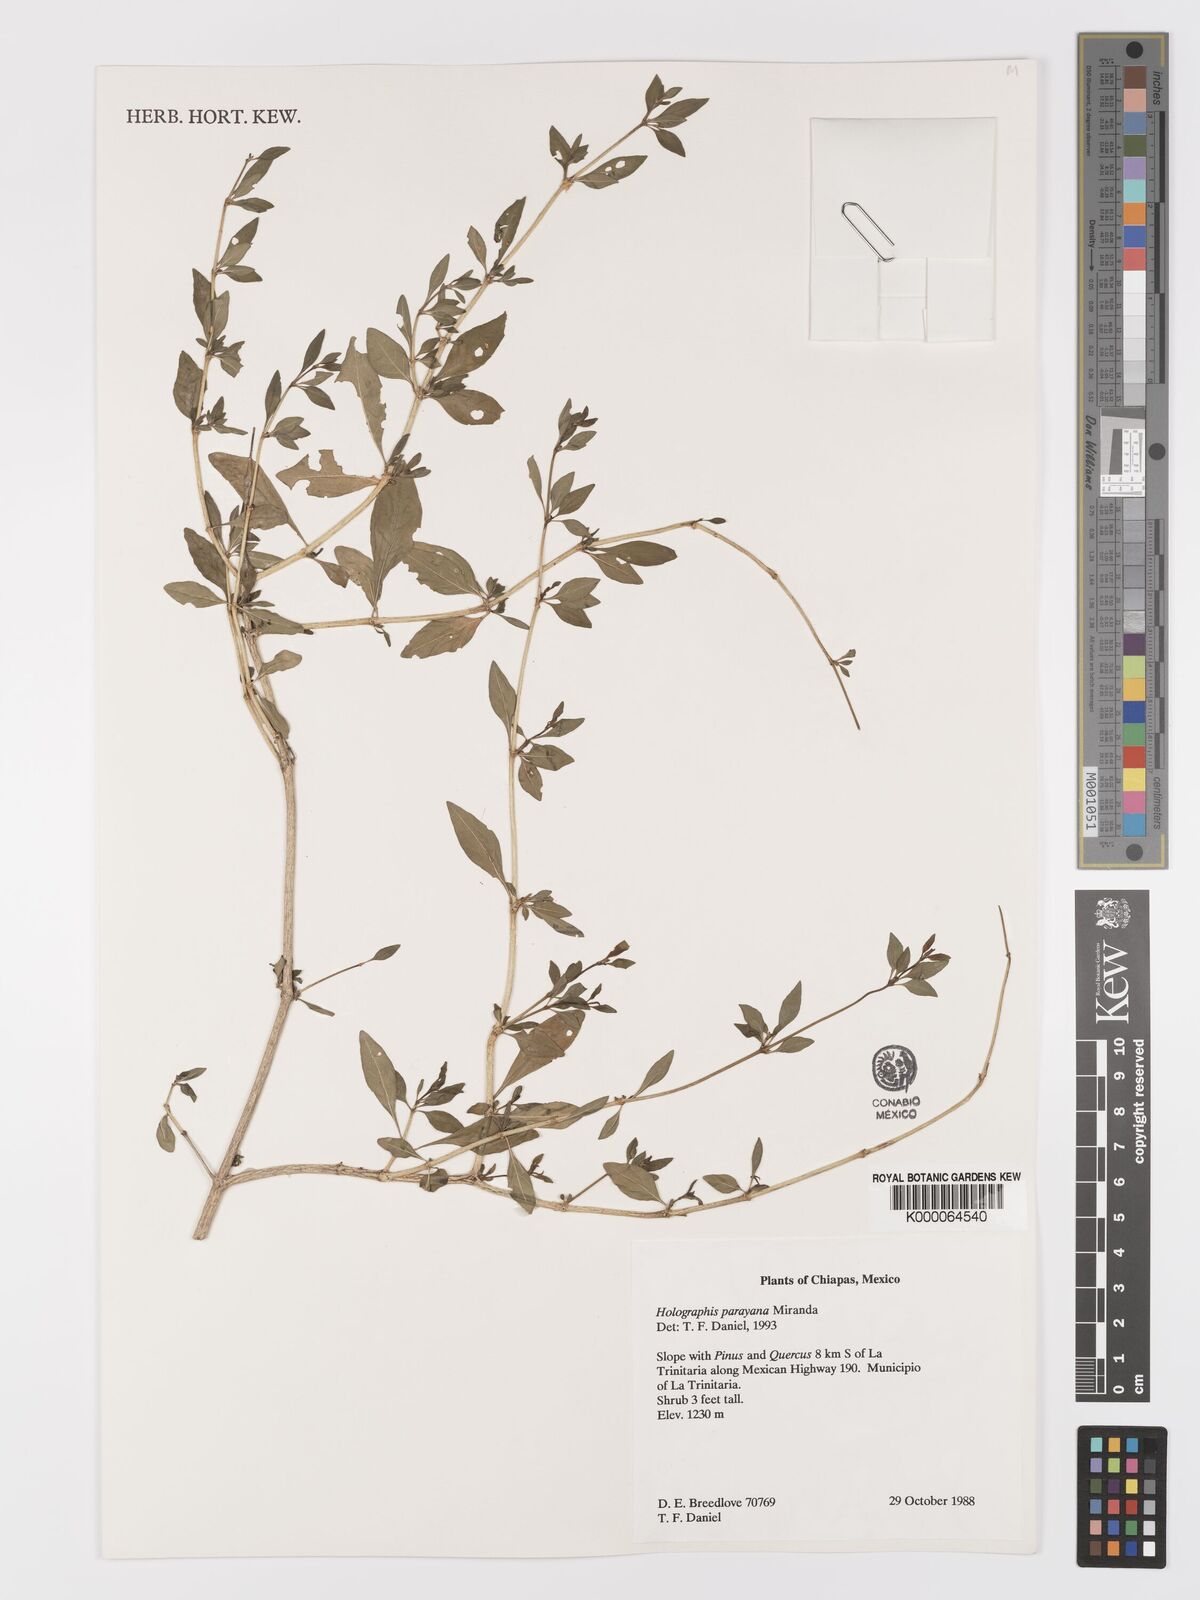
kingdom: Plantae
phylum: Tracheophyta
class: Magnoliopsida
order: Lamiales
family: Acanthaceae
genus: Holographis
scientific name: Holographis parayana
